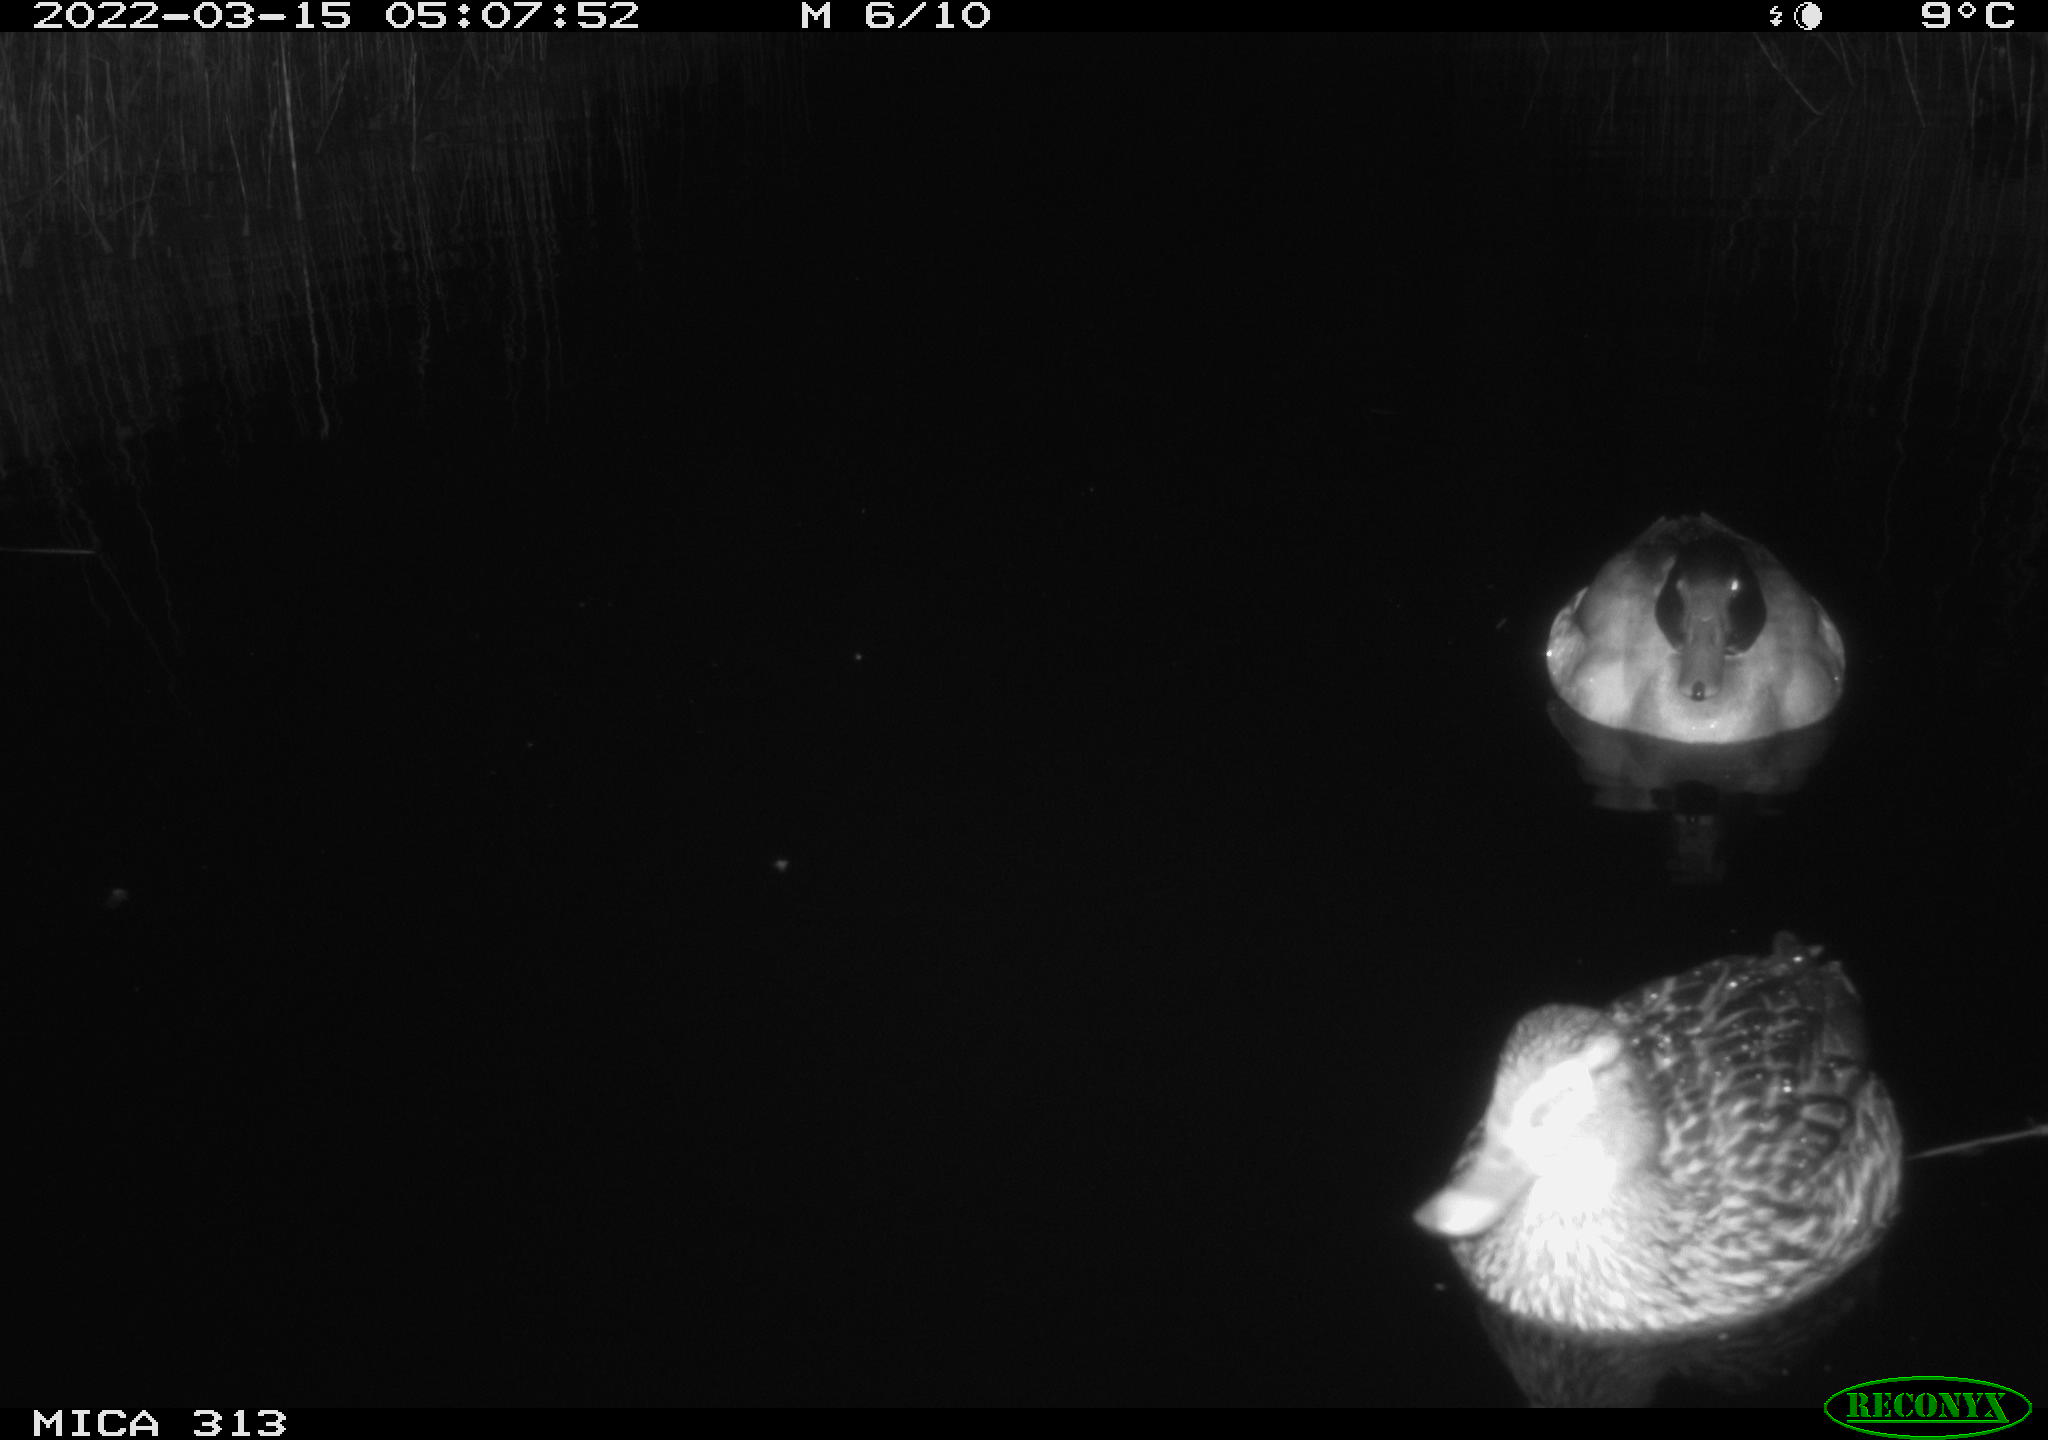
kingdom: Animalia
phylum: Chordata
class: Aves
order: Anseriformes
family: Anatidae
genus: Anas
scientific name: Anas platyrhynchos
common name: Mallard
